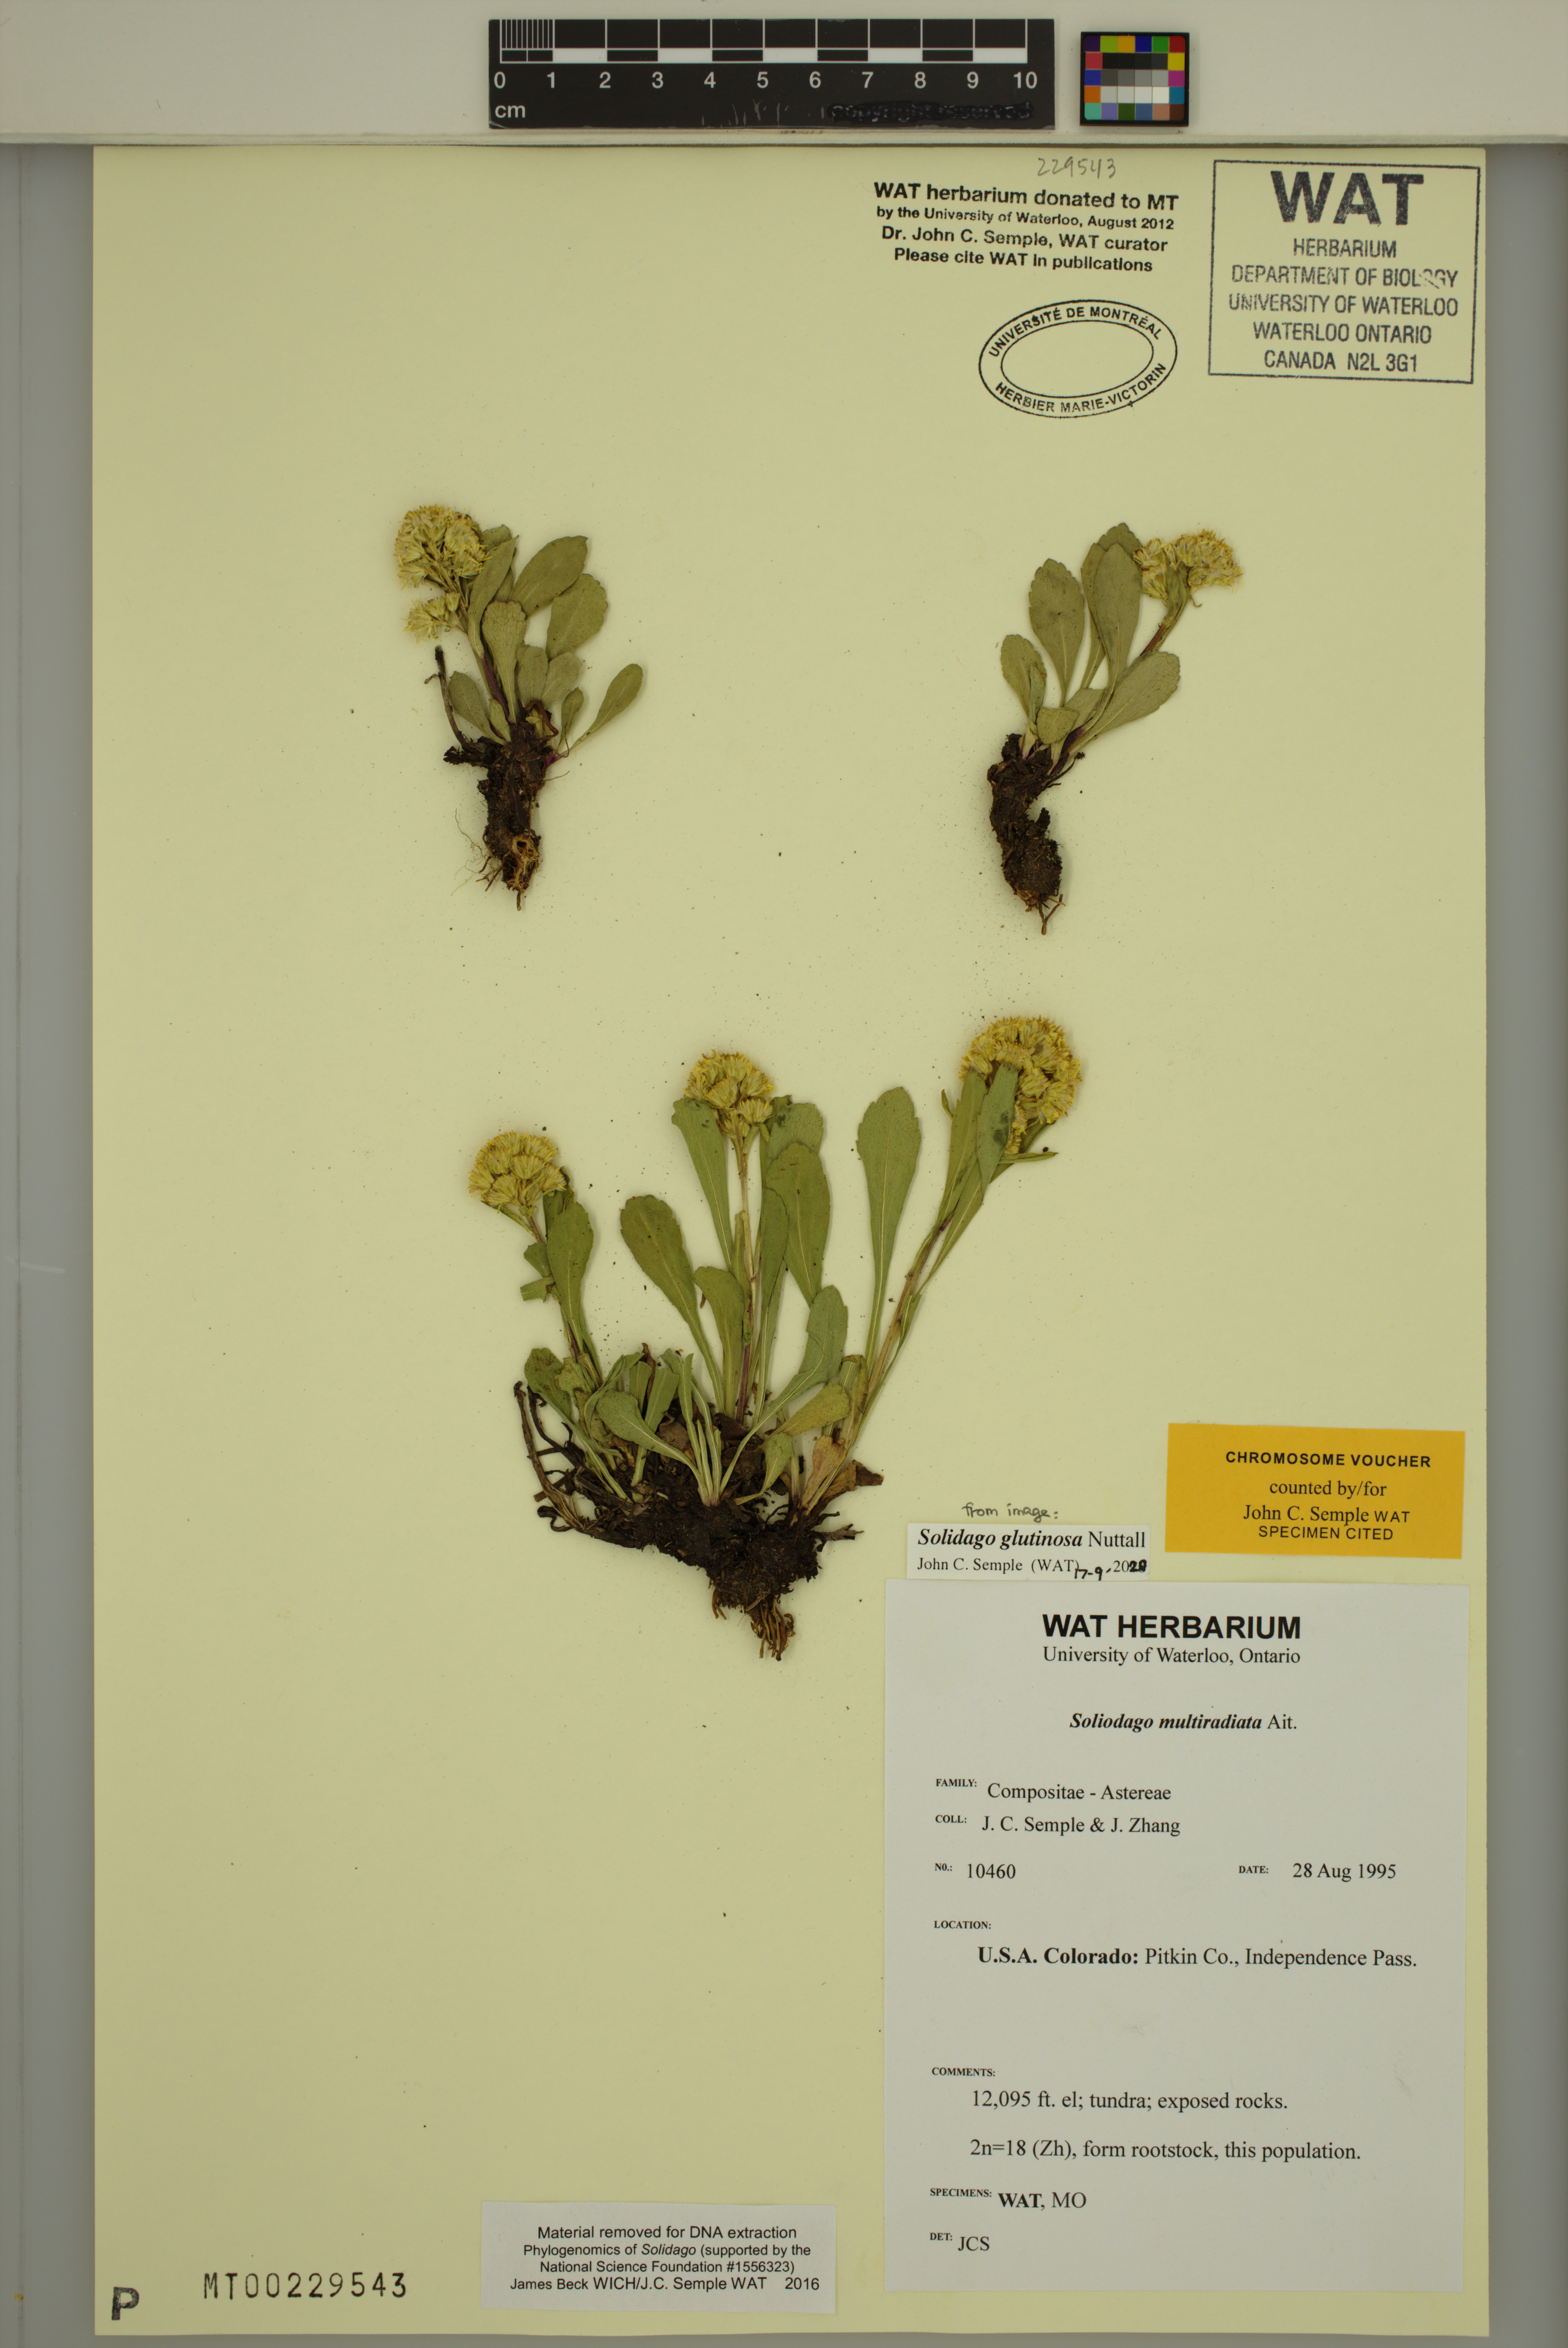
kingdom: Plantae
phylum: Tracheophyta
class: Magnoliopsida
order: Asterales
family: Asteraceae
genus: Solidago
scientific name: Solidago glutinosa
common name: Decumbent goldenrod
